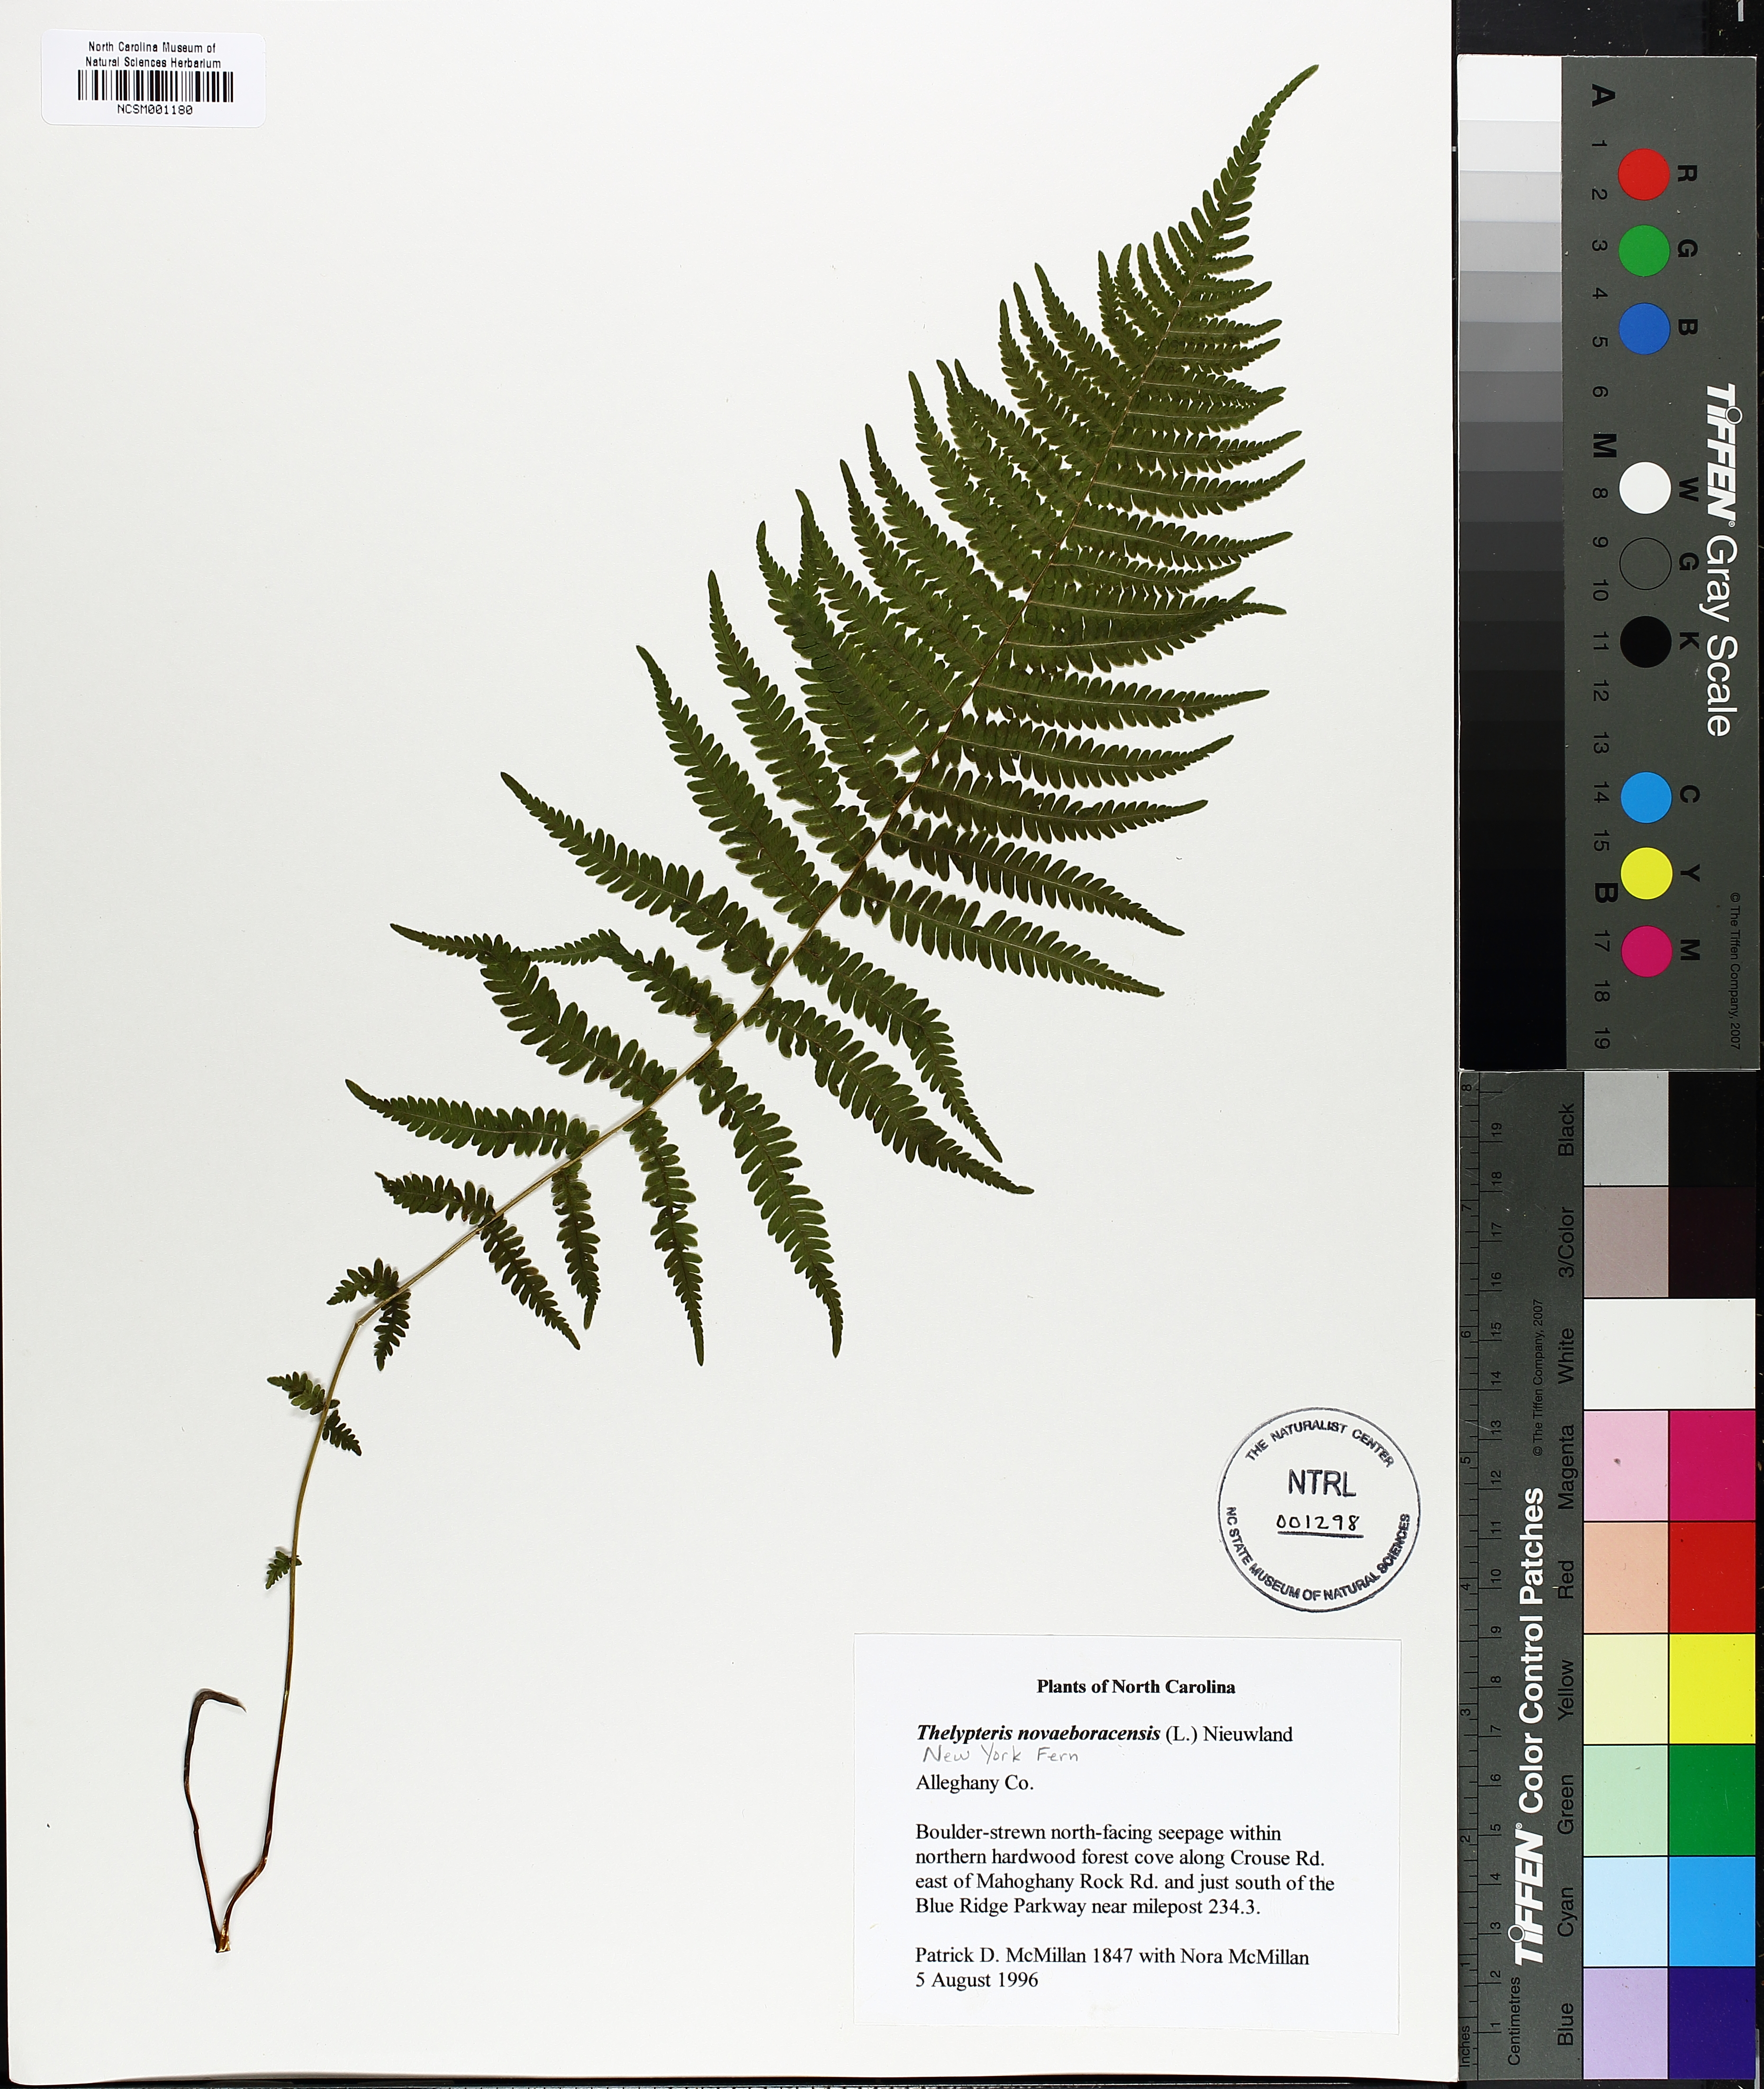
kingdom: Plantae
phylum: Tracheophyta
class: Polypodiopsida
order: Polypodiales
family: Thelypteridaceae
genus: Amauropelta
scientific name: Amauropelta noveboracensis
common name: New york fern
